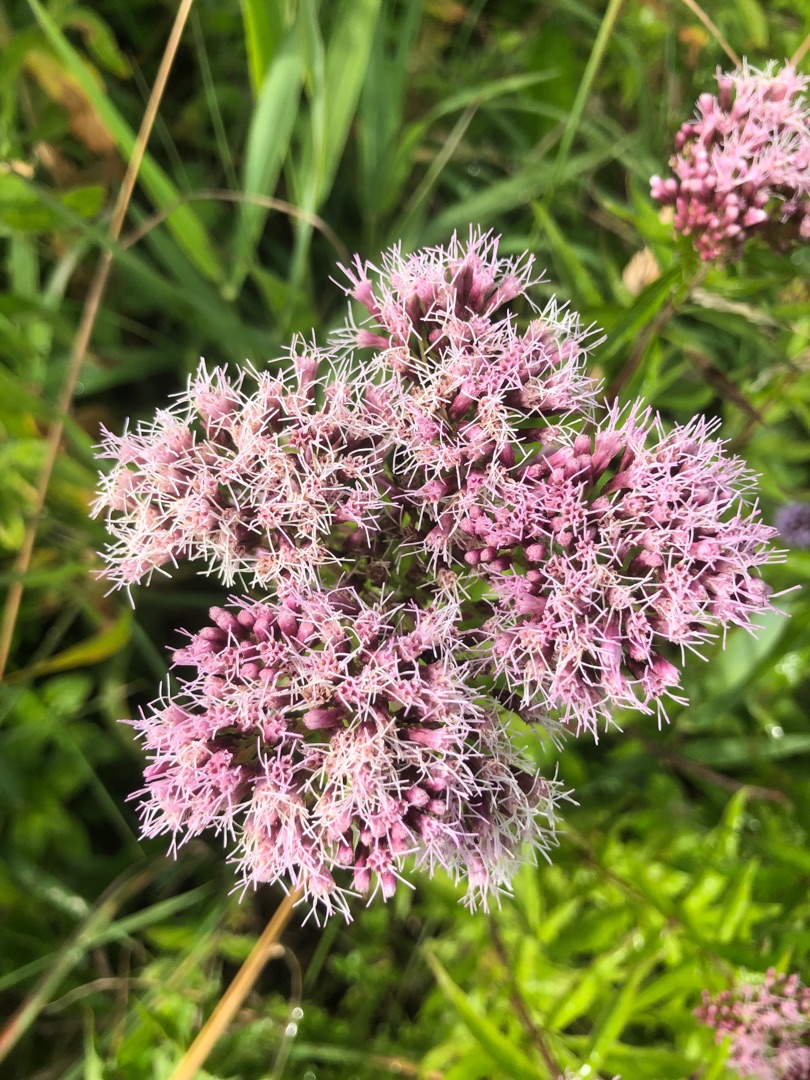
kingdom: Plantae
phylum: Tracheophyta
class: Magnoliopsida
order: Asterales
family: Asteraceae
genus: Eupatorium
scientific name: Eupatorium cannabinum
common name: Hjortetrøst
